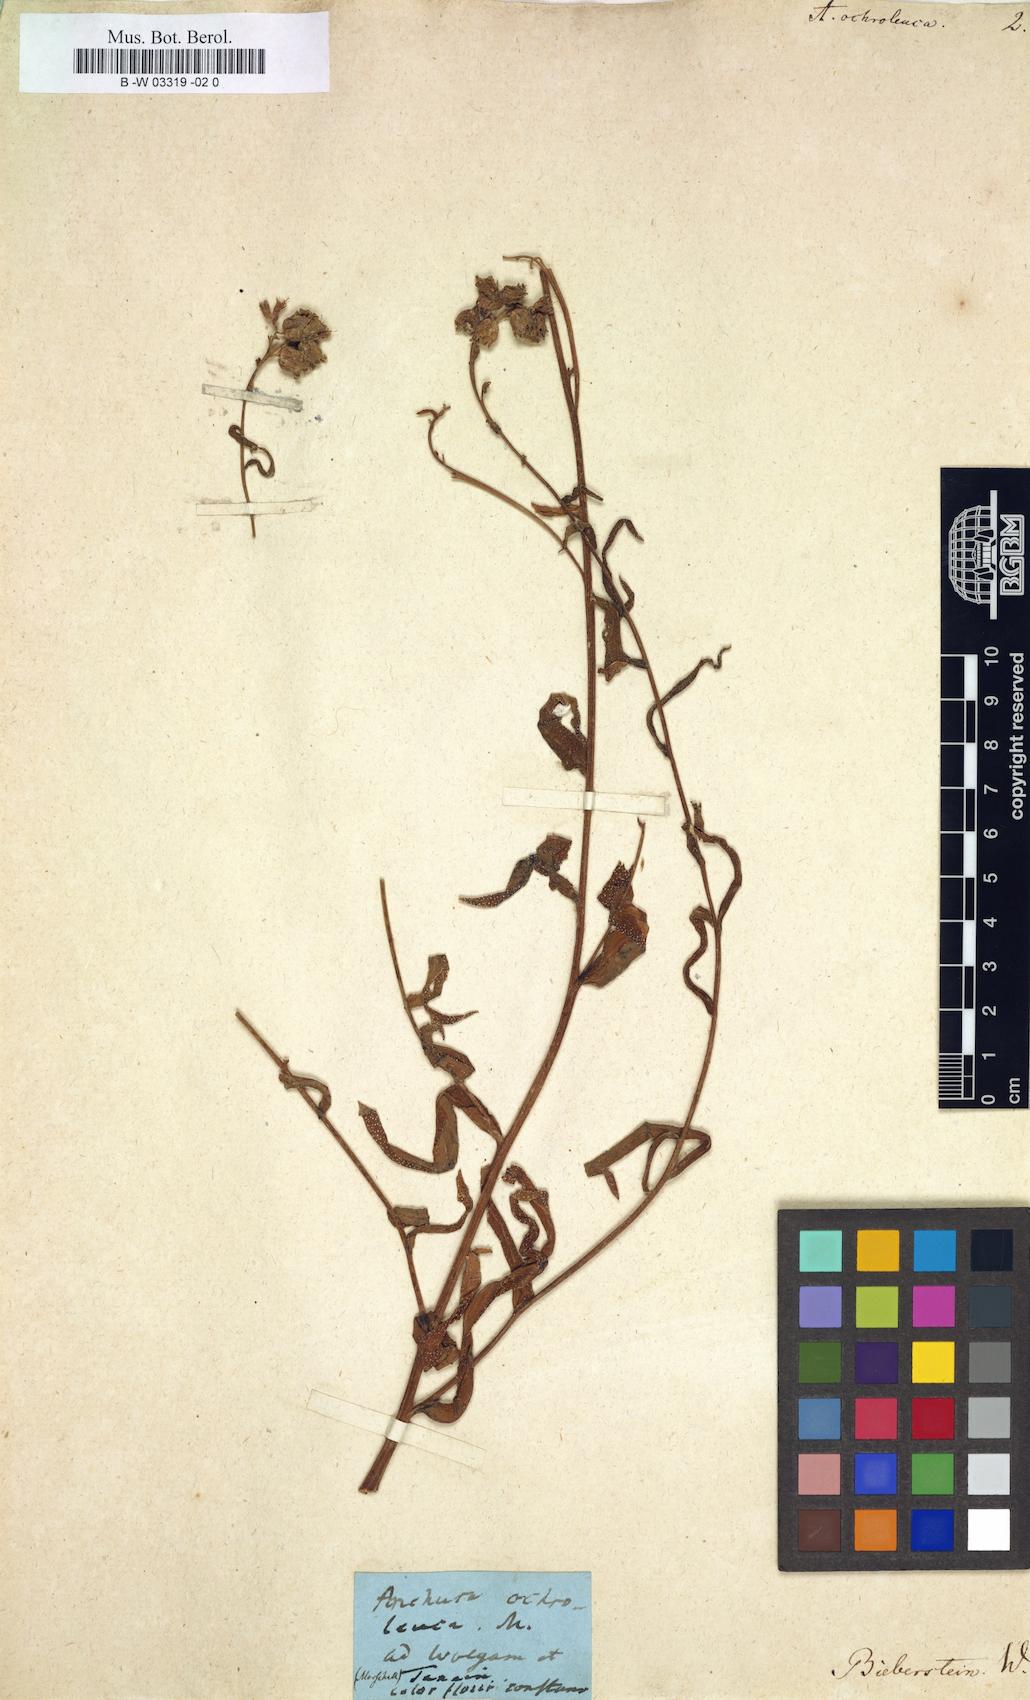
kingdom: Plantae
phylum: Tracheophyta
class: Magnoliopsida
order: Boraginales
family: Boraginaceae
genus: Anchusa
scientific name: Anchusa ochroleuca
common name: Yellow alkanet
